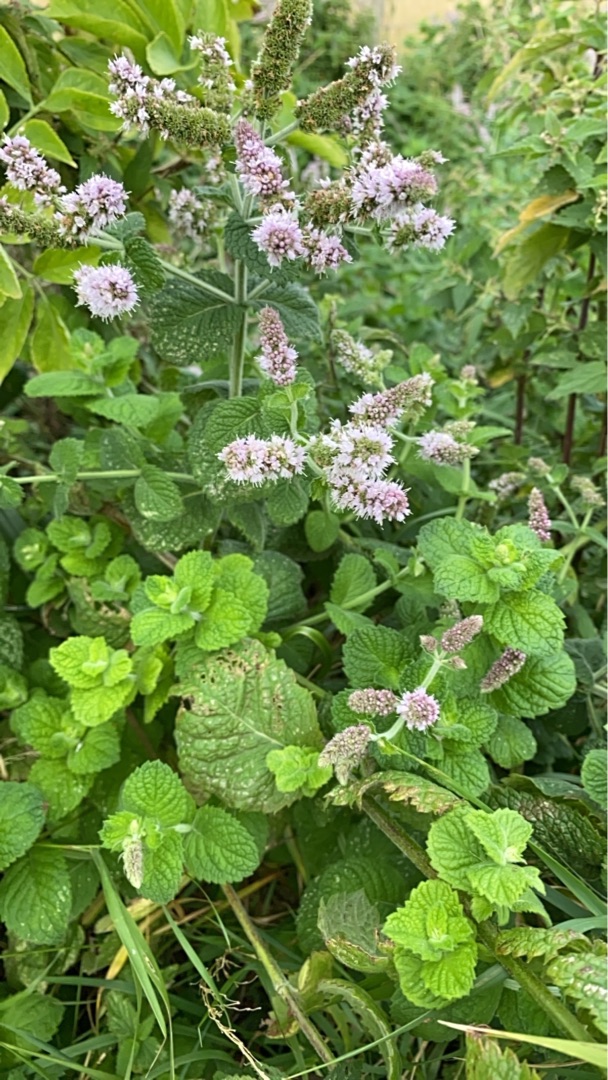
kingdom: Plantae
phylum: Tracheophyta
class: Magnoliopsida
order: Lamiales
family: Lamiaceae
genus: Mentha
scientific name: Mentha villosa
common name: Æble-mynte
